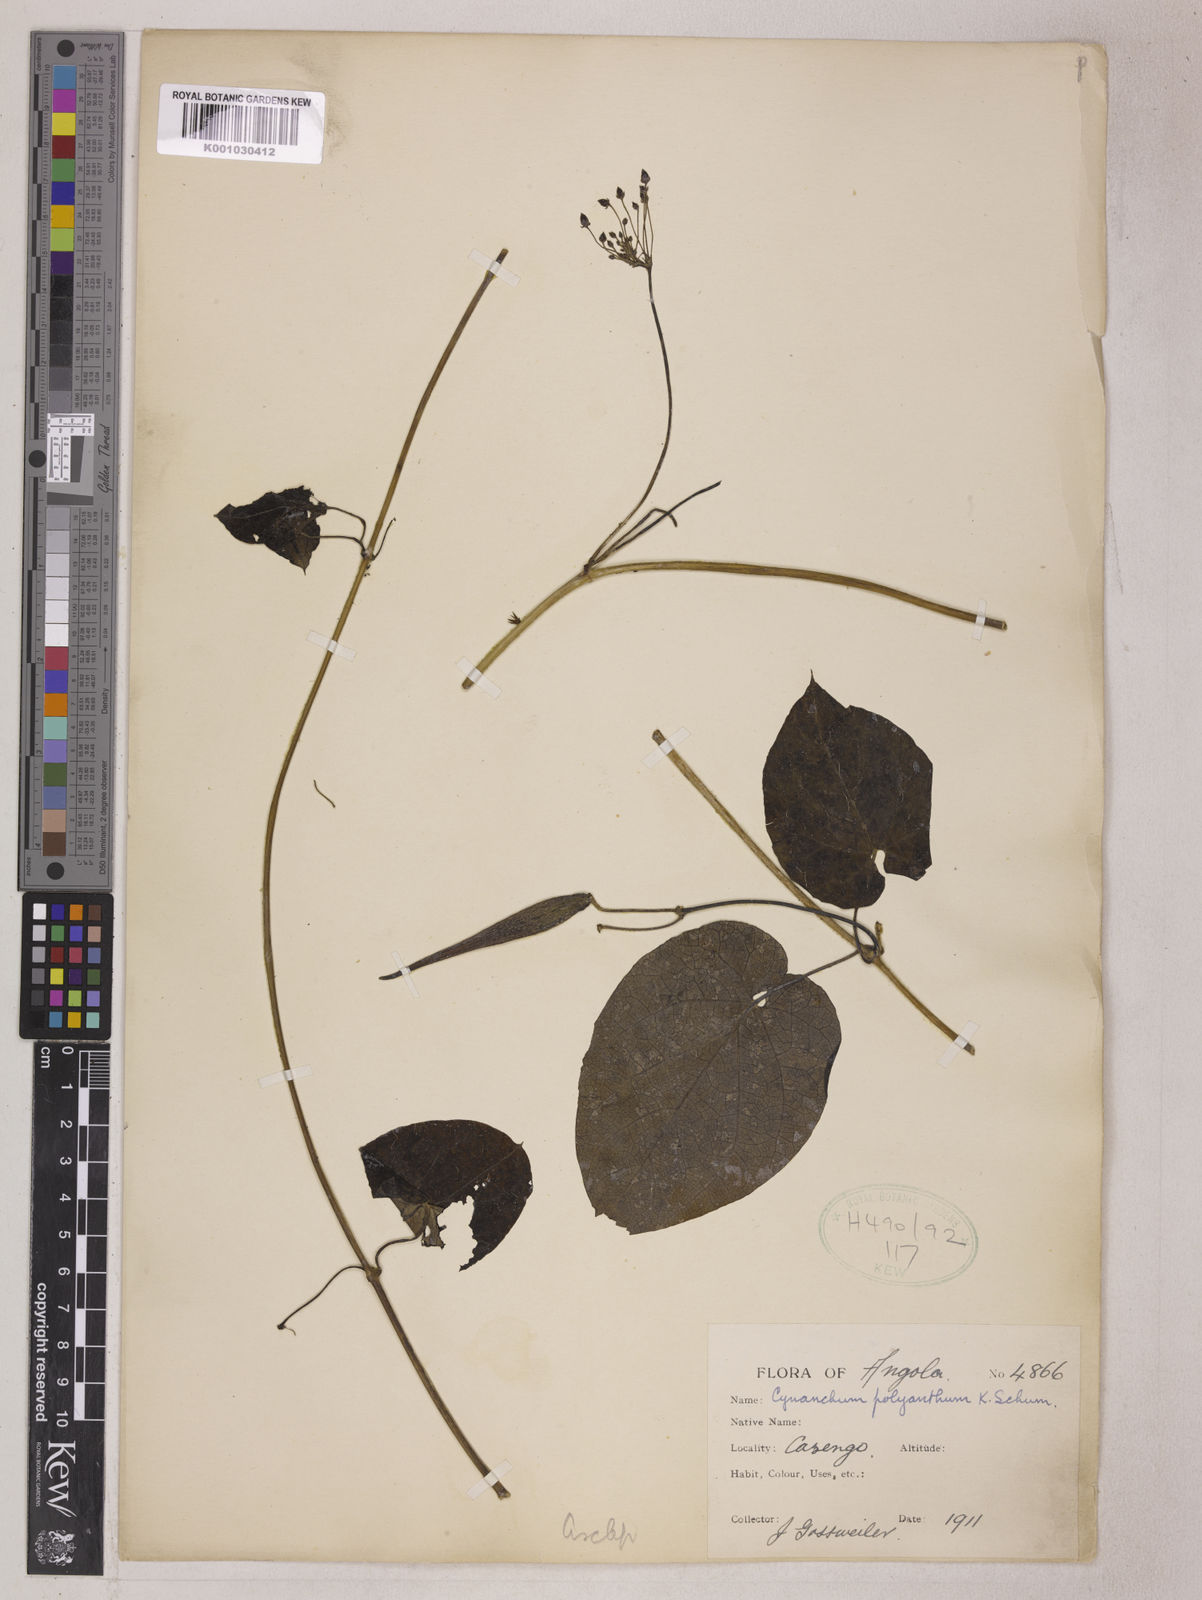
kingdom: Plantae
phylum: Tracheophyta
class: Magnoliopsida
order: Gentianales
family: Apocynaceae
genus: Cynanchum
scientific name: Cynanchum polyanthum
